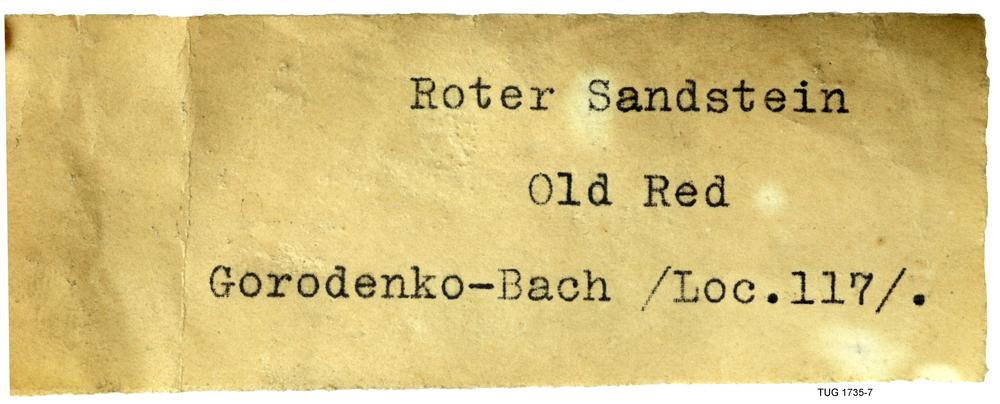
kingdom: Animalia
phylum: Chordata
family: Holonematidae
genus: Holonema
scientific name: Holonema
